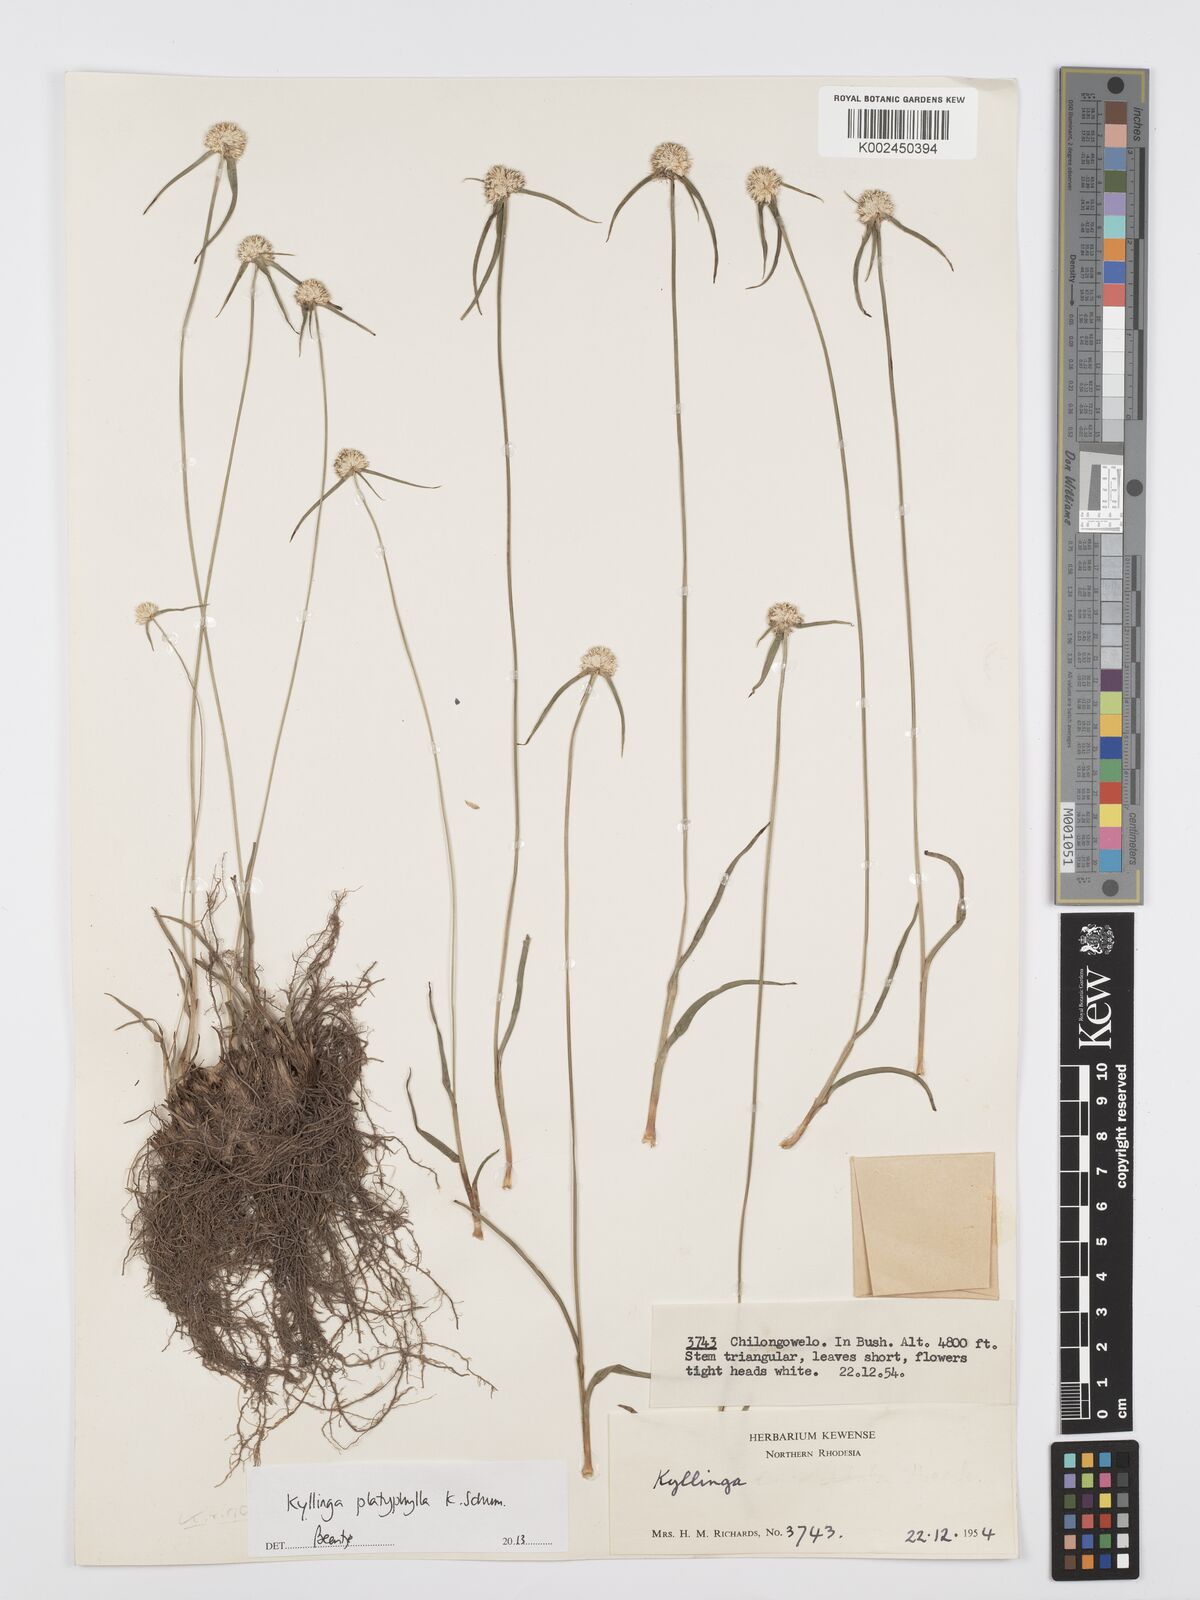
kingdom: Plantae
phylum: Tracheophyta
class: Liliopsida
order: Poales
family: Cyperaceae
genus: Cyperus
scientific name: Cyperus
